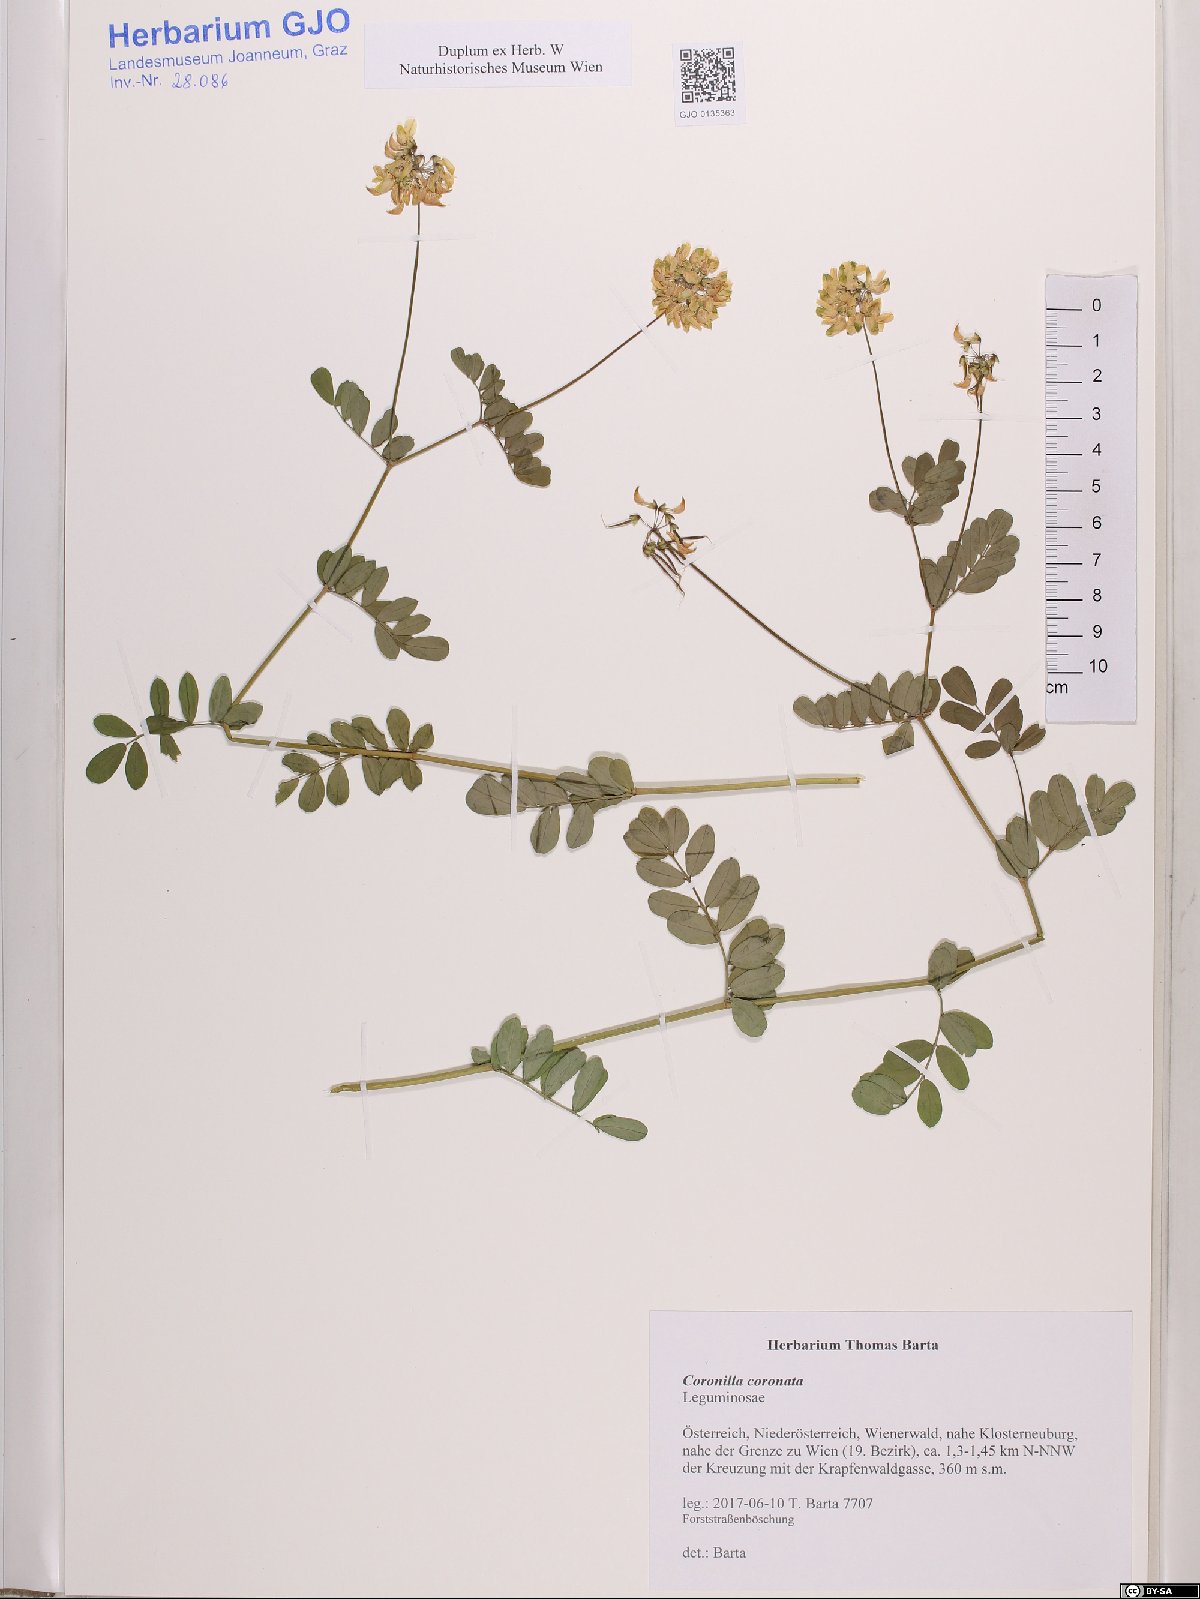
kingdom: Plantae
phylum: Tracheophyta
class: Magnoliopsida
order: Fabales
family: Fabaceae
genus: Coronilla
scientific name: Coronilla coronata
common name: Scorpion-vetch
